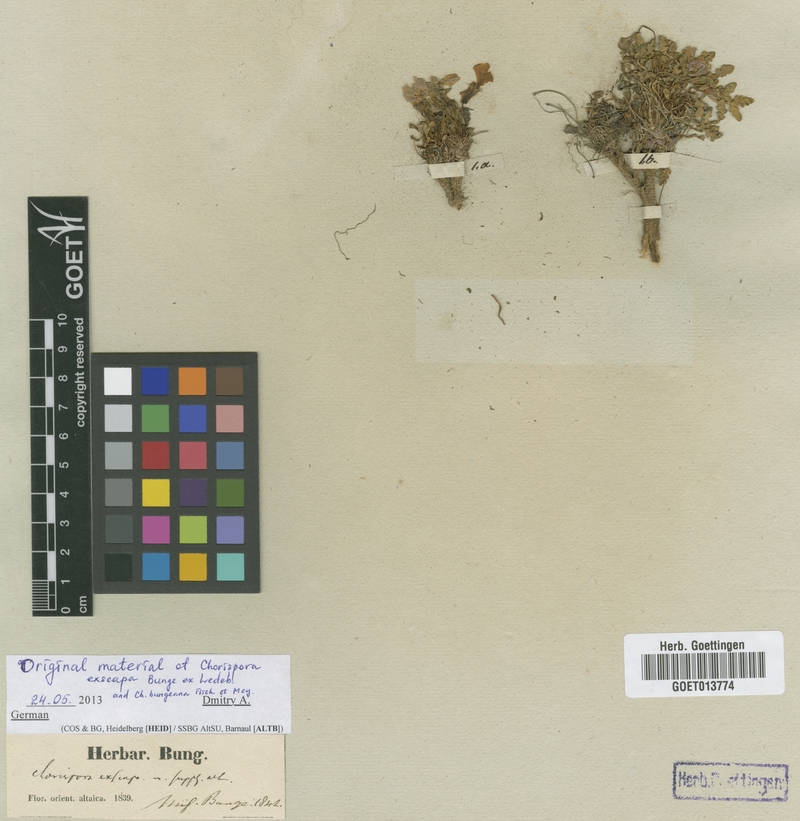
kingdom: Plantae
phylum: Tracheophyta
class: Magnoliopsida
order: Brassicales
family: Brassicaceae
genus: Chorispora
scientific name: Chorispora bungeana
